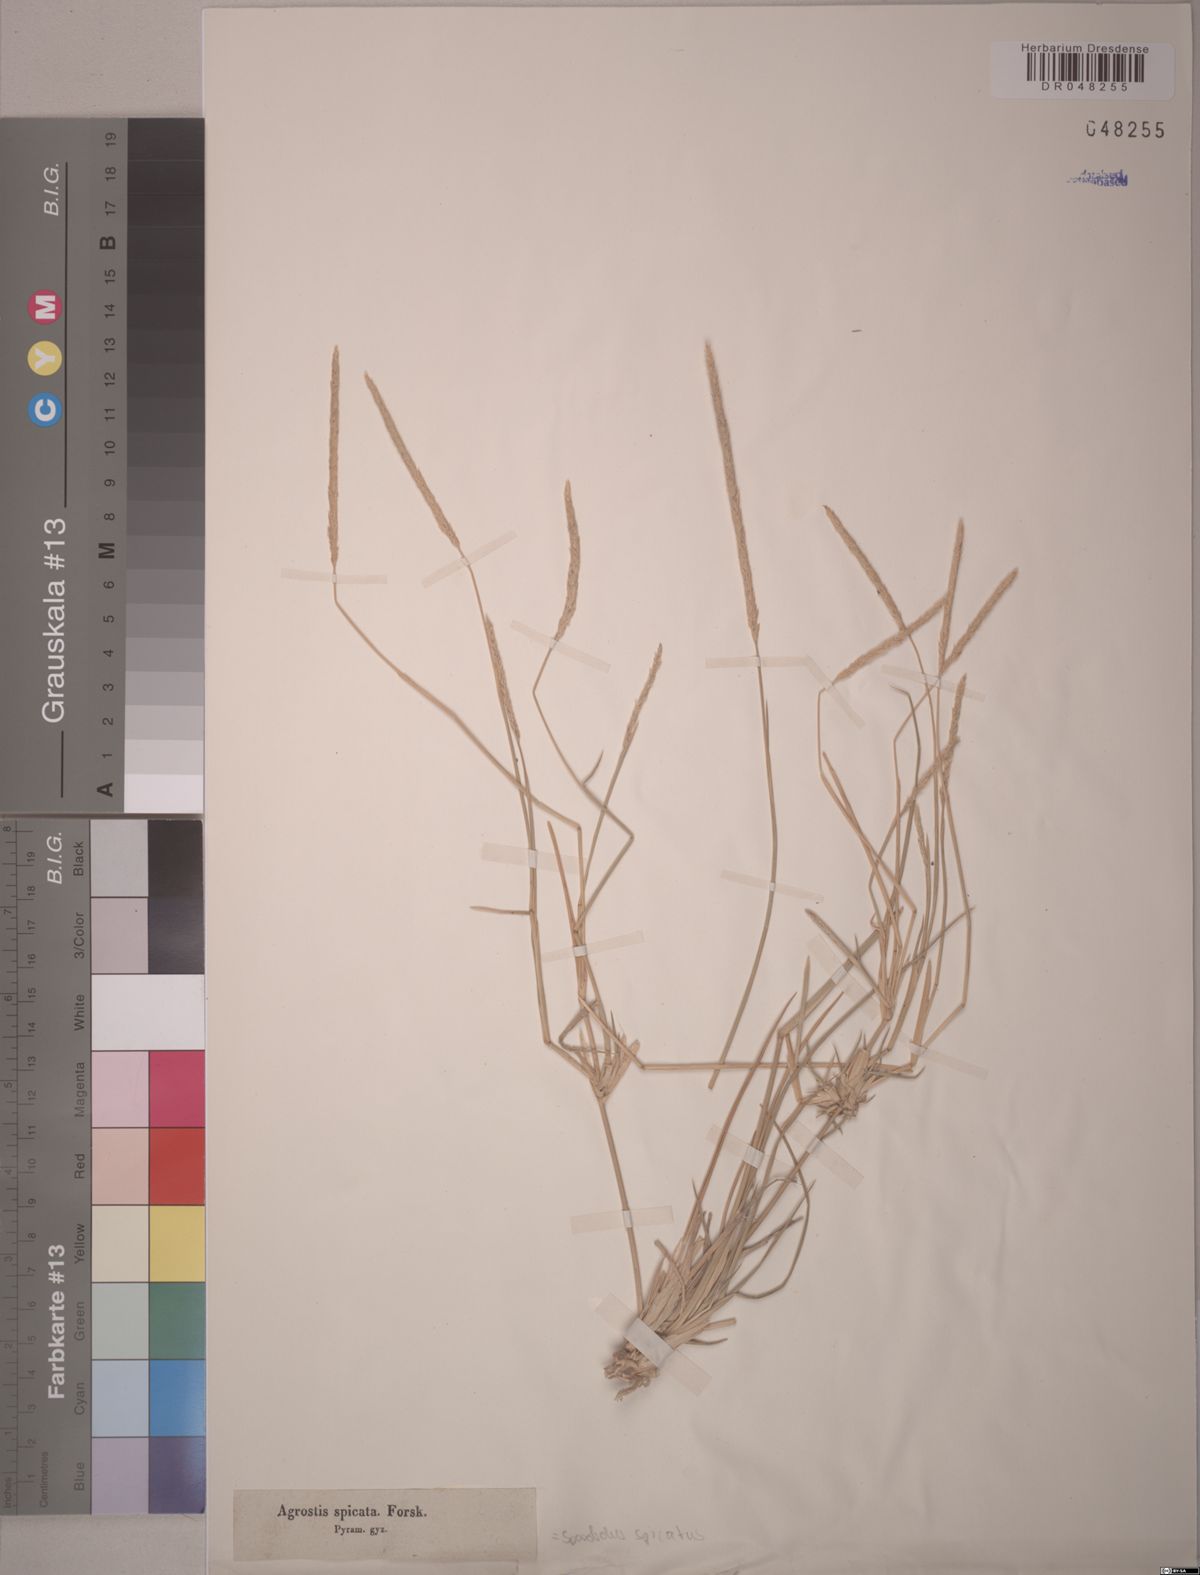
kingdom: Plantae
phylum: Tracheophyta
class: Liliopsida
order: Poales
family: Poaceae
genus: Sporobolus
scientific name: Sporobolus spicatus
